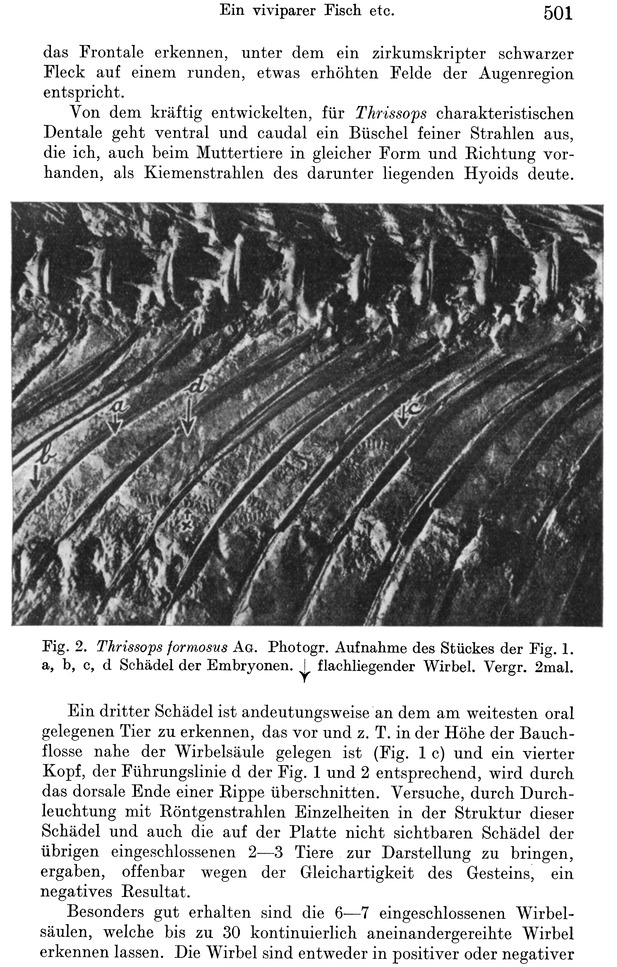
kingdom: Animalia
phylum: Chordata
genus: Thrissops
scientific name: Thrissops formosus
